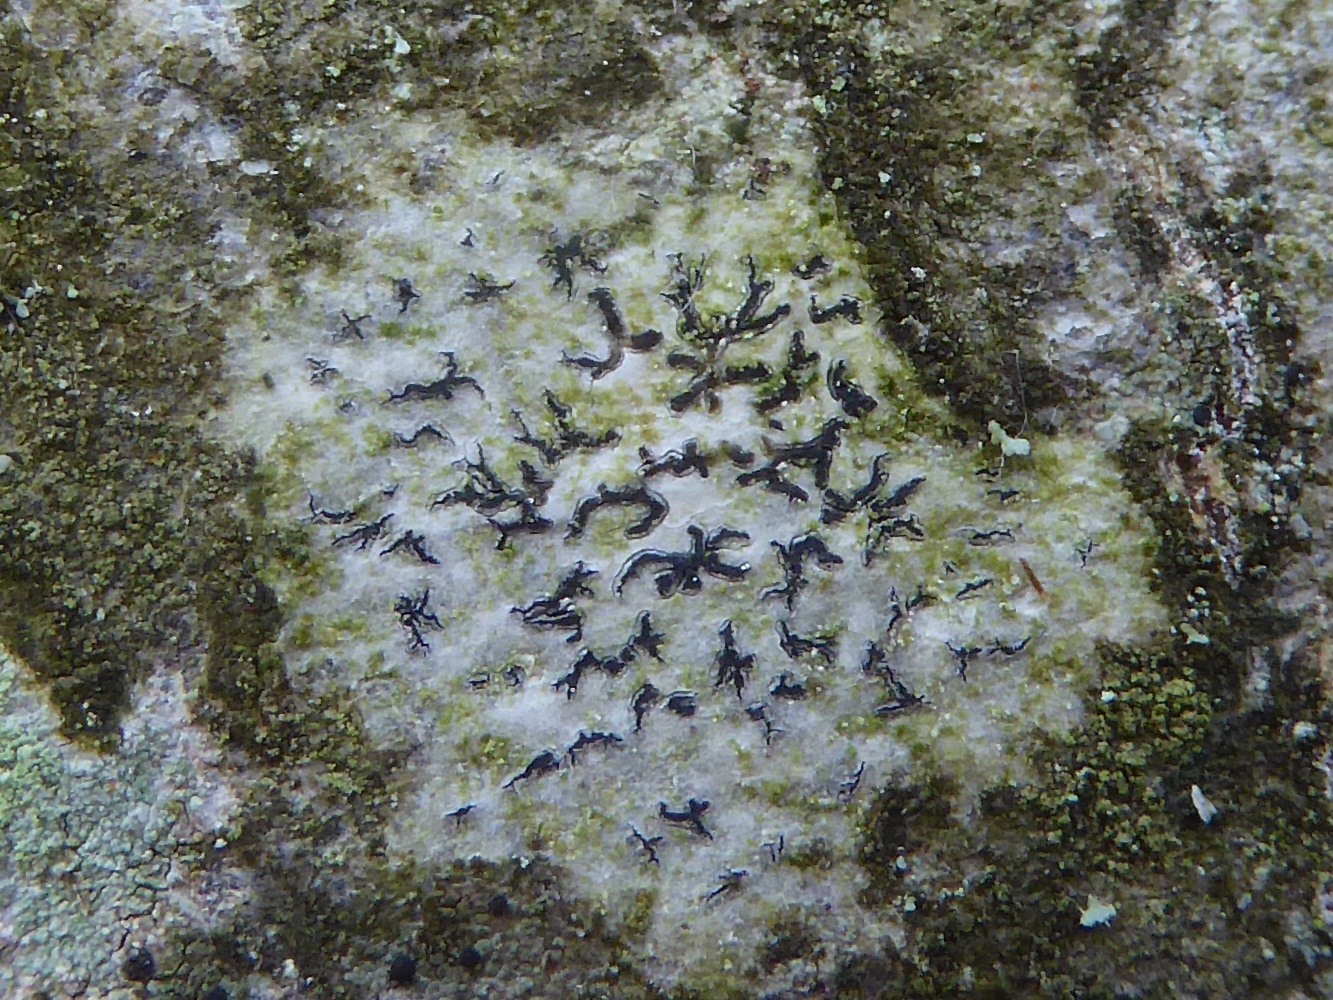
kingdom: Fungi
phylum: Ascomycota
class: Lecanoromycetes
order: Ostropales
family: Graphidaceae
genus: Graphis
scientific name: Graphis scripta
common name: almindelig skriftlav
